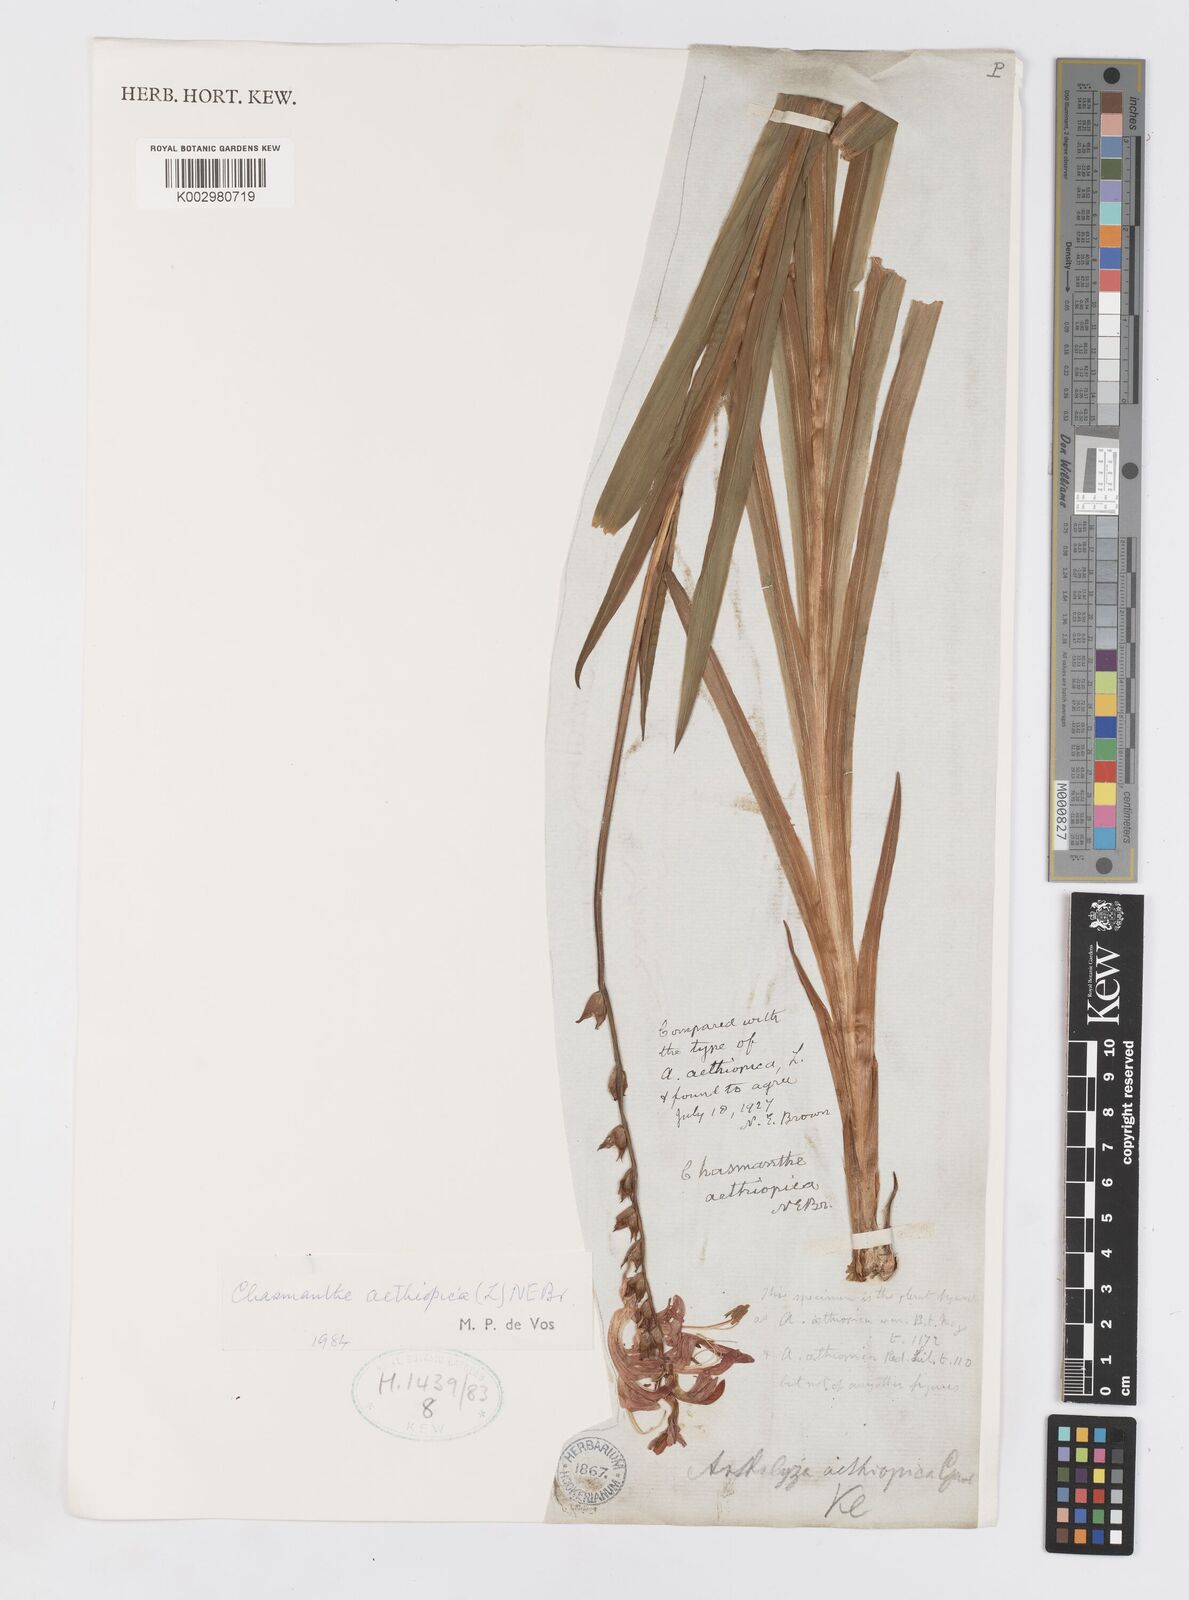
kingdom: Plantae
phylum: Tracheophyta
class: Liliopsida
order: Asparagales
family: Iridaceae
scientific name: Iridaceae
